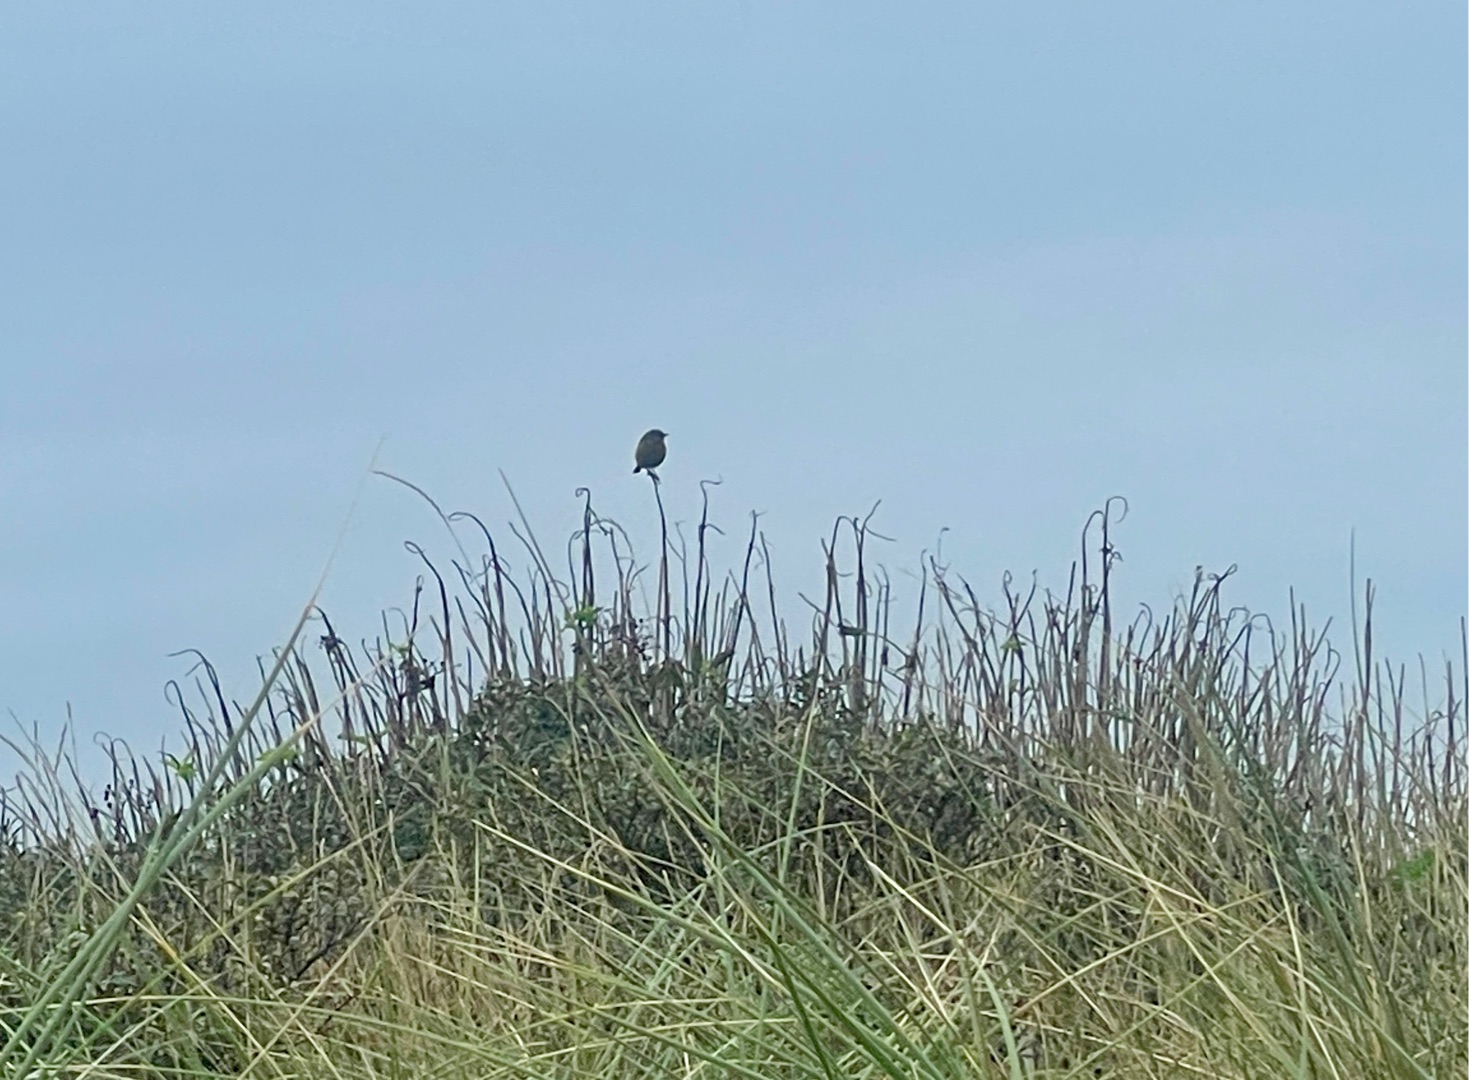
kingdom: Animalia
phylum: Chordata
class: Aves
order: Passeriformes
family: Muscicapidae
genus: Saxicola
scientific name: Saxicola rubicola
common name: Sortstrubet bynkefugl
